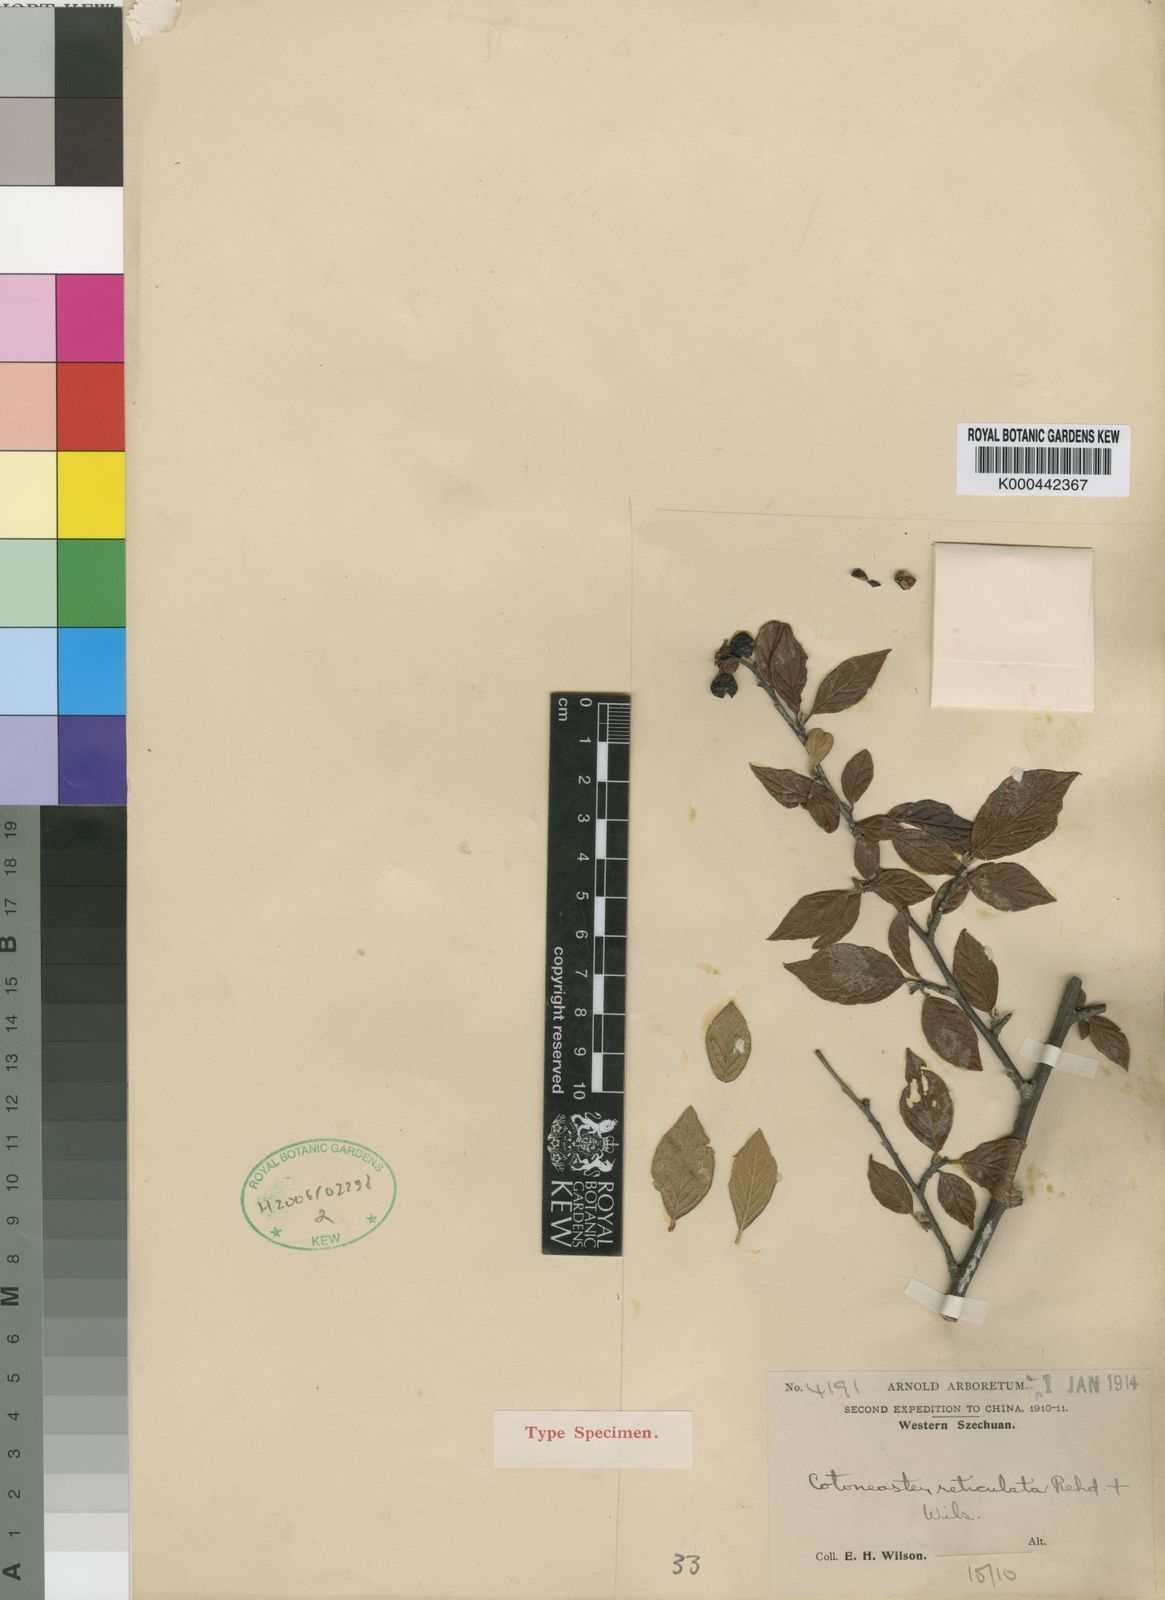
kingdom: Plantae
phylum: Tracheophyta
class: Magnoliopsida
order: Rosales
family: Rosaceae
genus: Cotoneaster
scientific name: Cotoneaster bullatus
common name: Hollyberry cotoneaster
